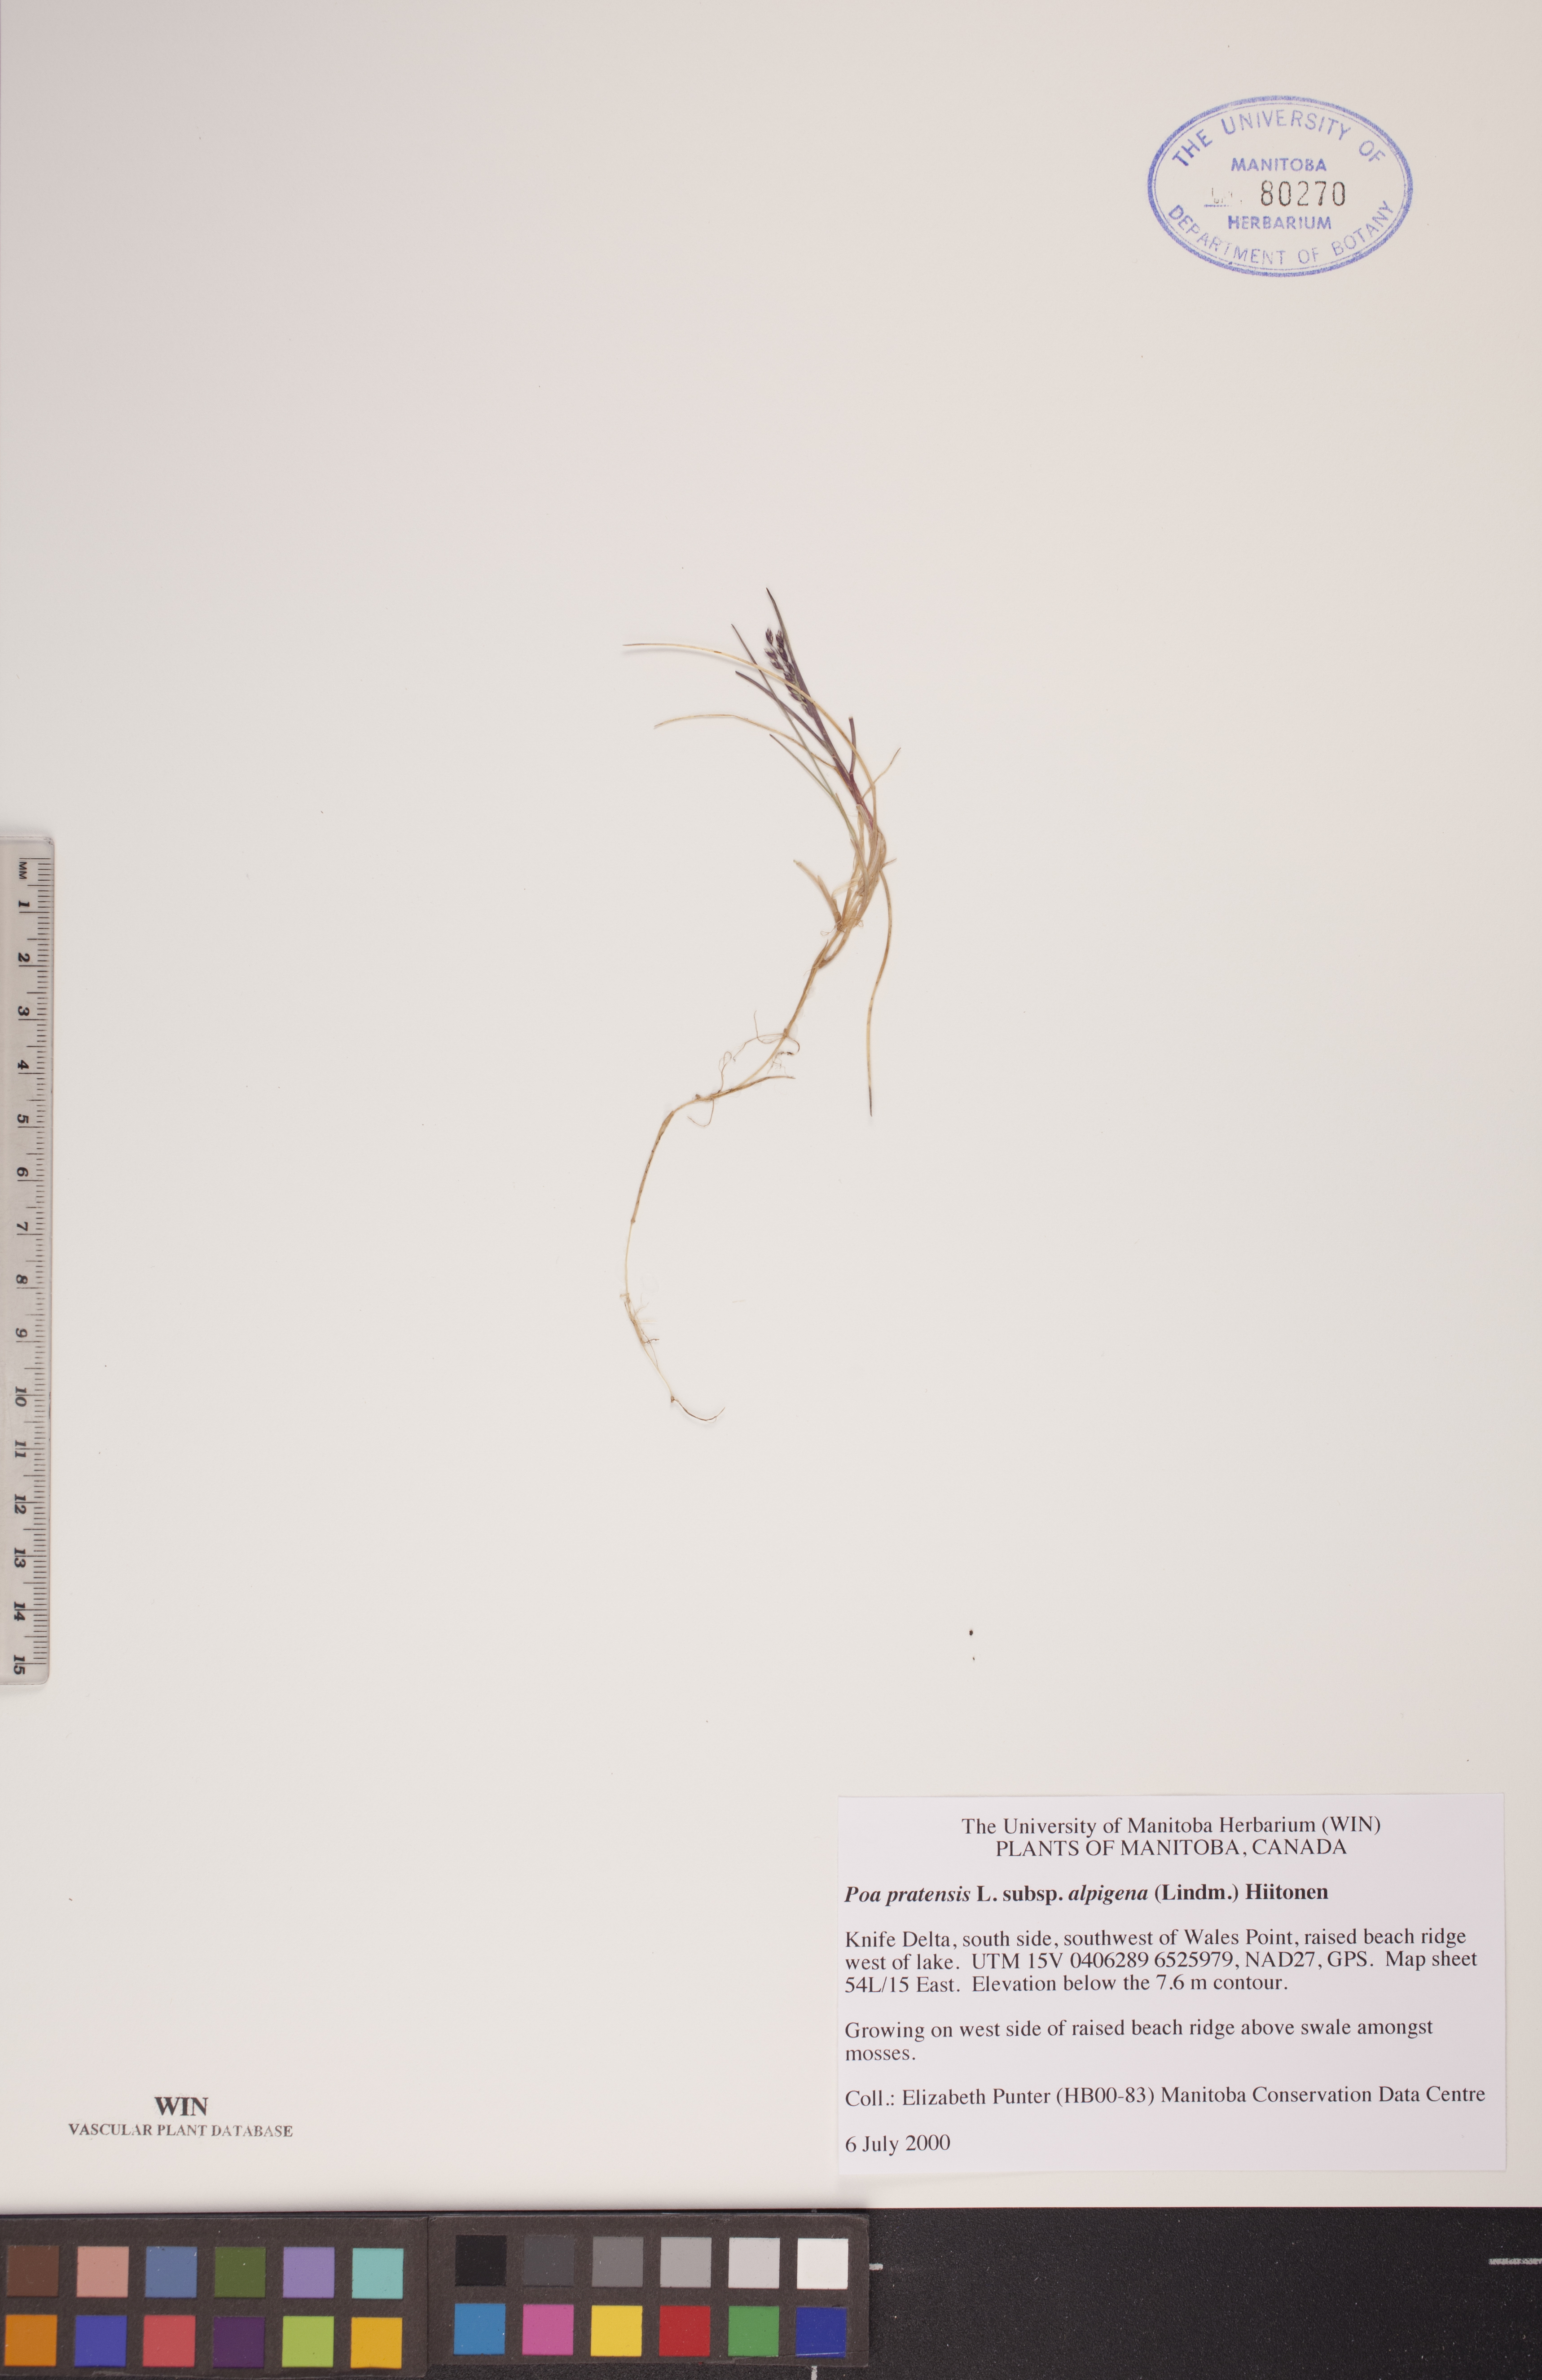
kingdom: Plantae
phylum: Tracheophyta
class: Liliopsida
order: Poales
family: Poaceae
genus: Poa
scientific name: Poa alpigena
